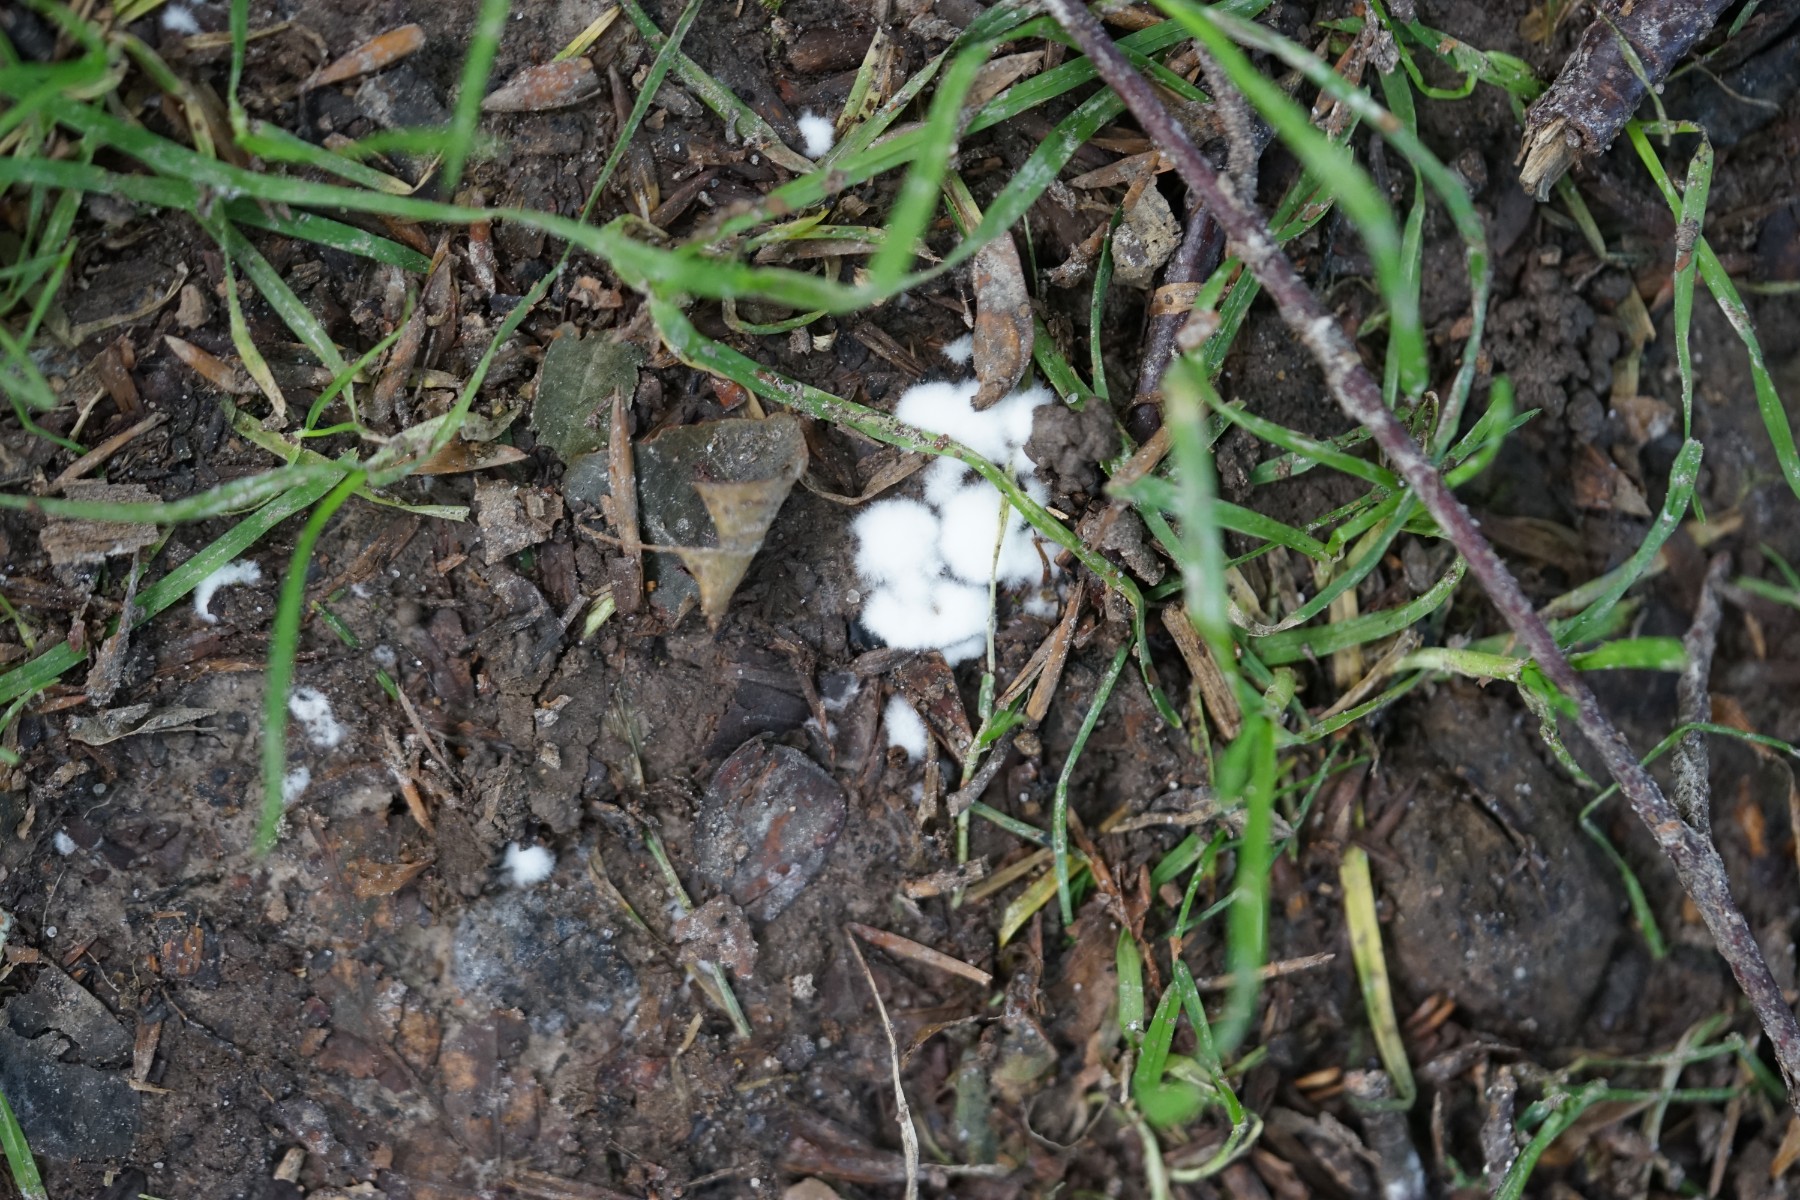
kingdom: Fungi
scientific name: Fungi
